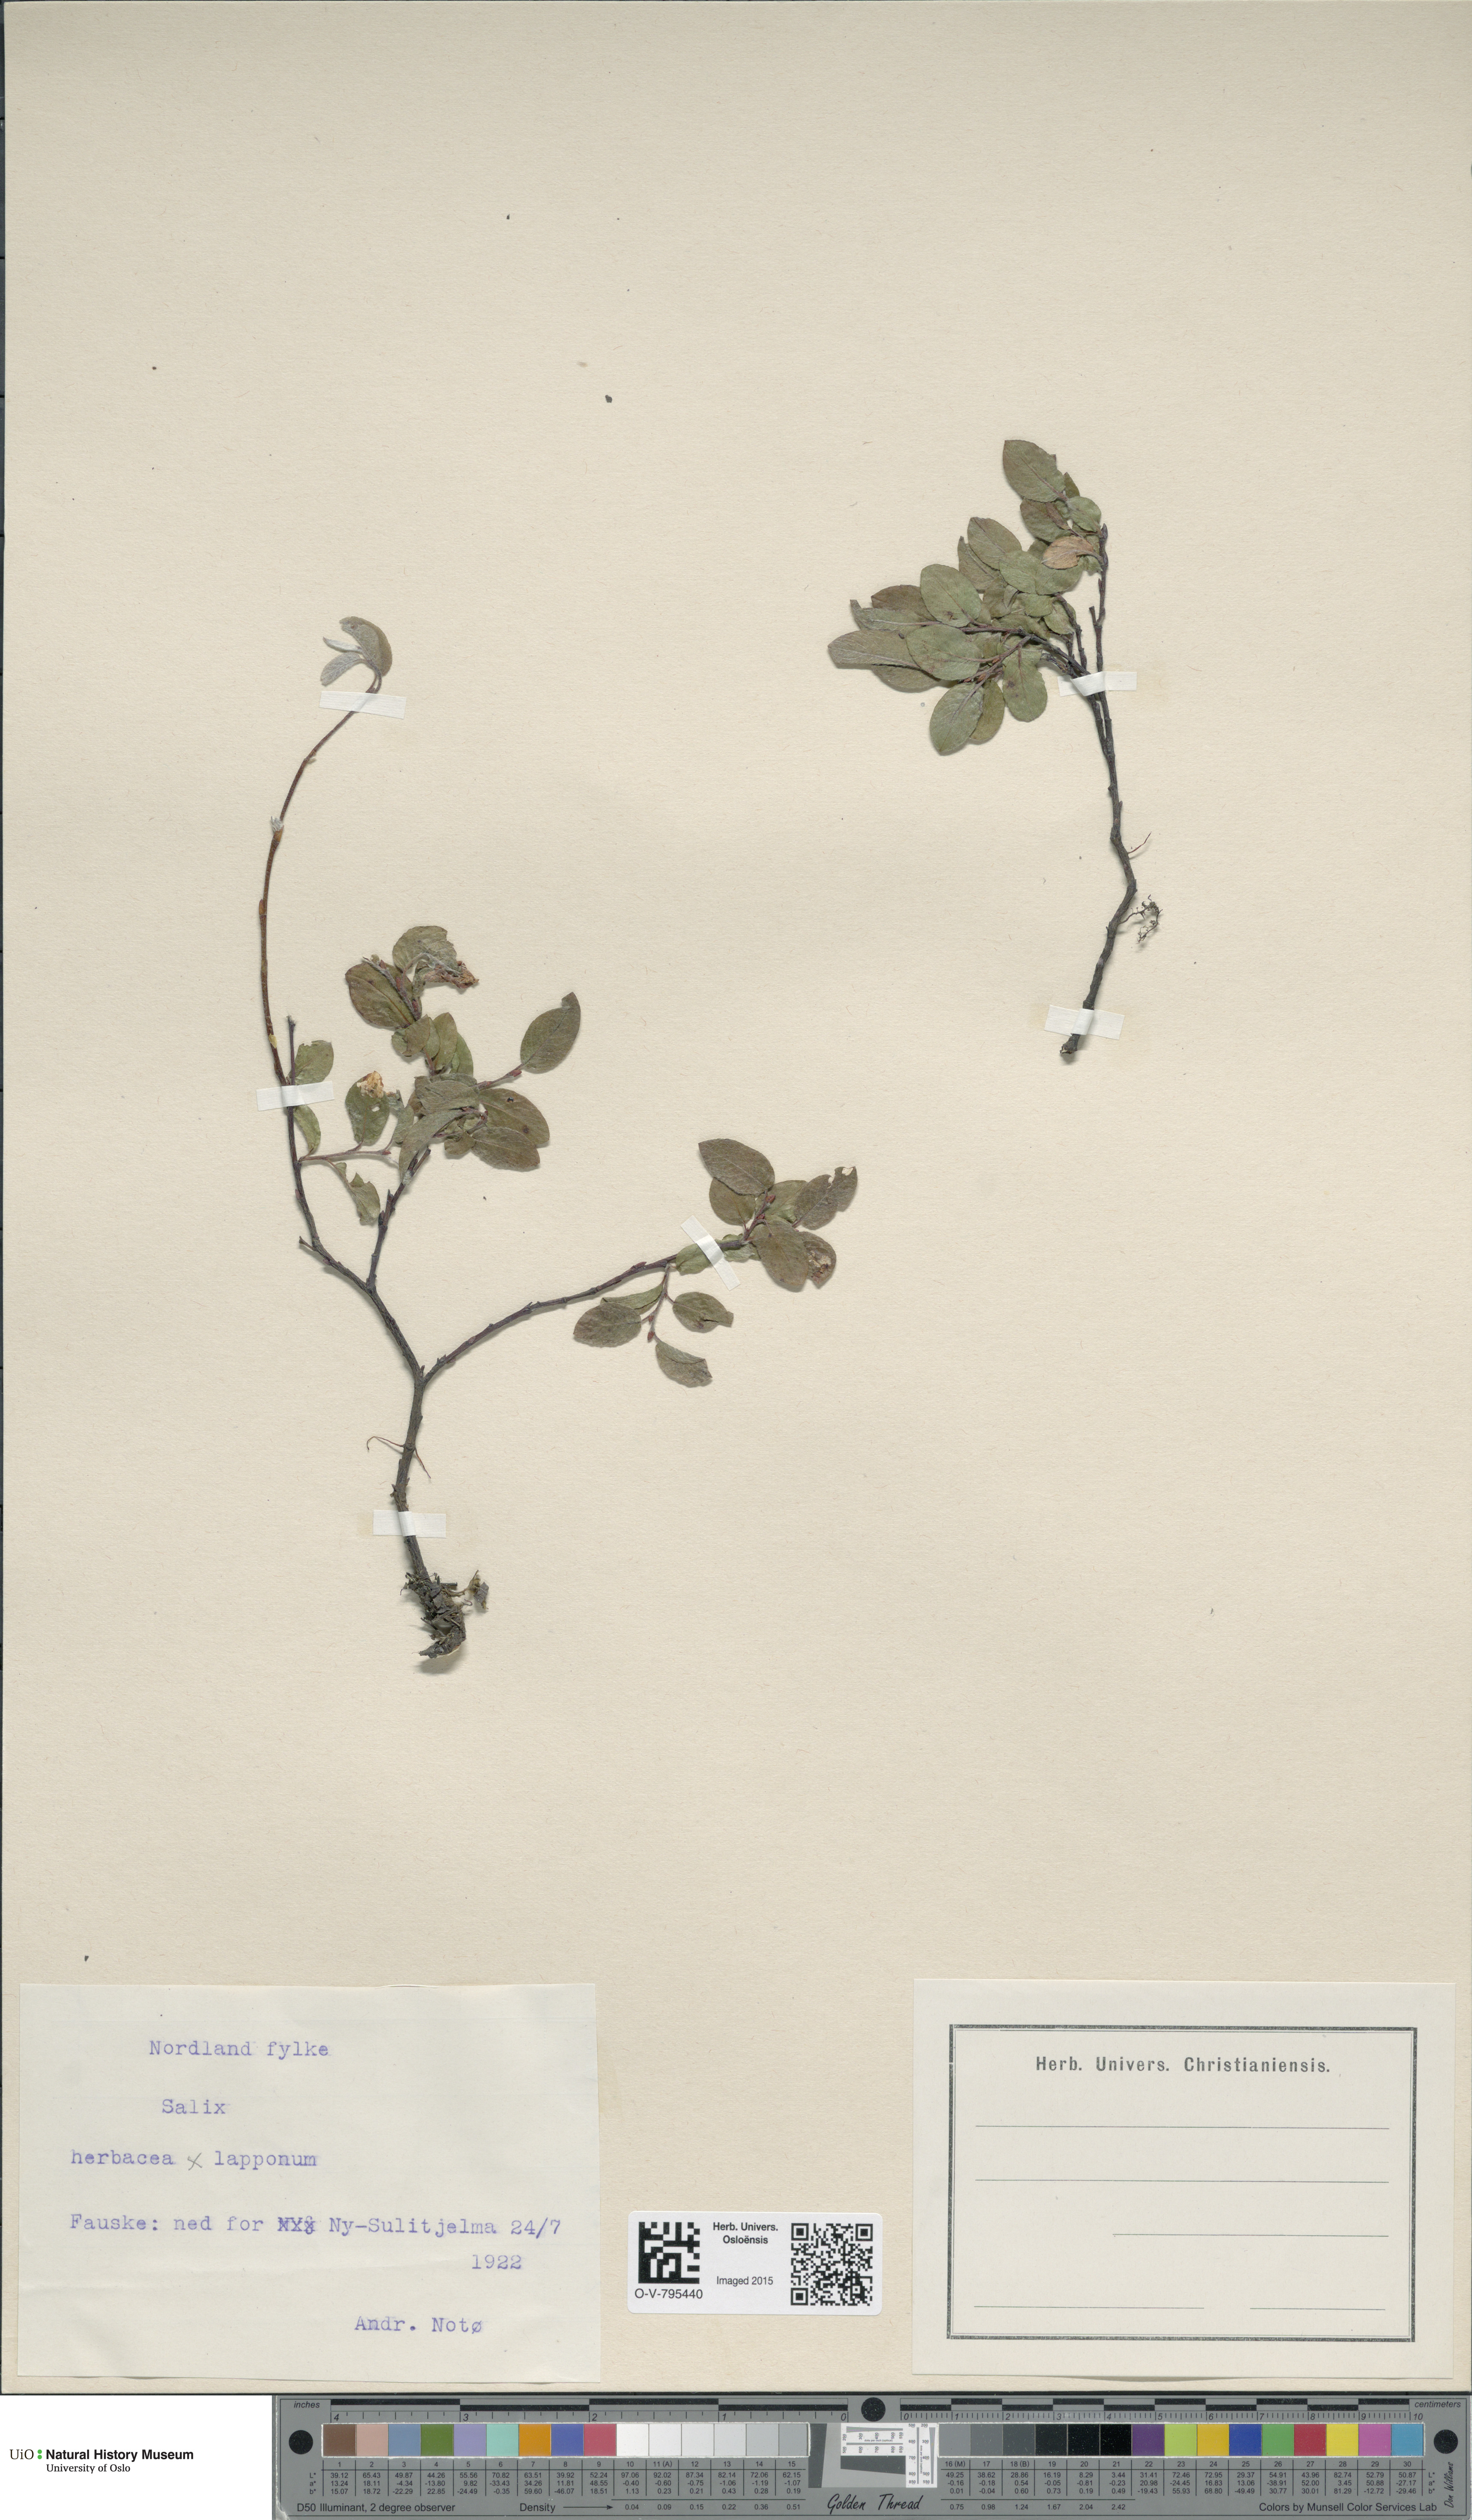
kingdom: Plantae
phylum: Tracheophyta
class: Magnoliopsida
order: Malpighiales
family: Salicaceae
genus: Salix
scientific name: Salix
